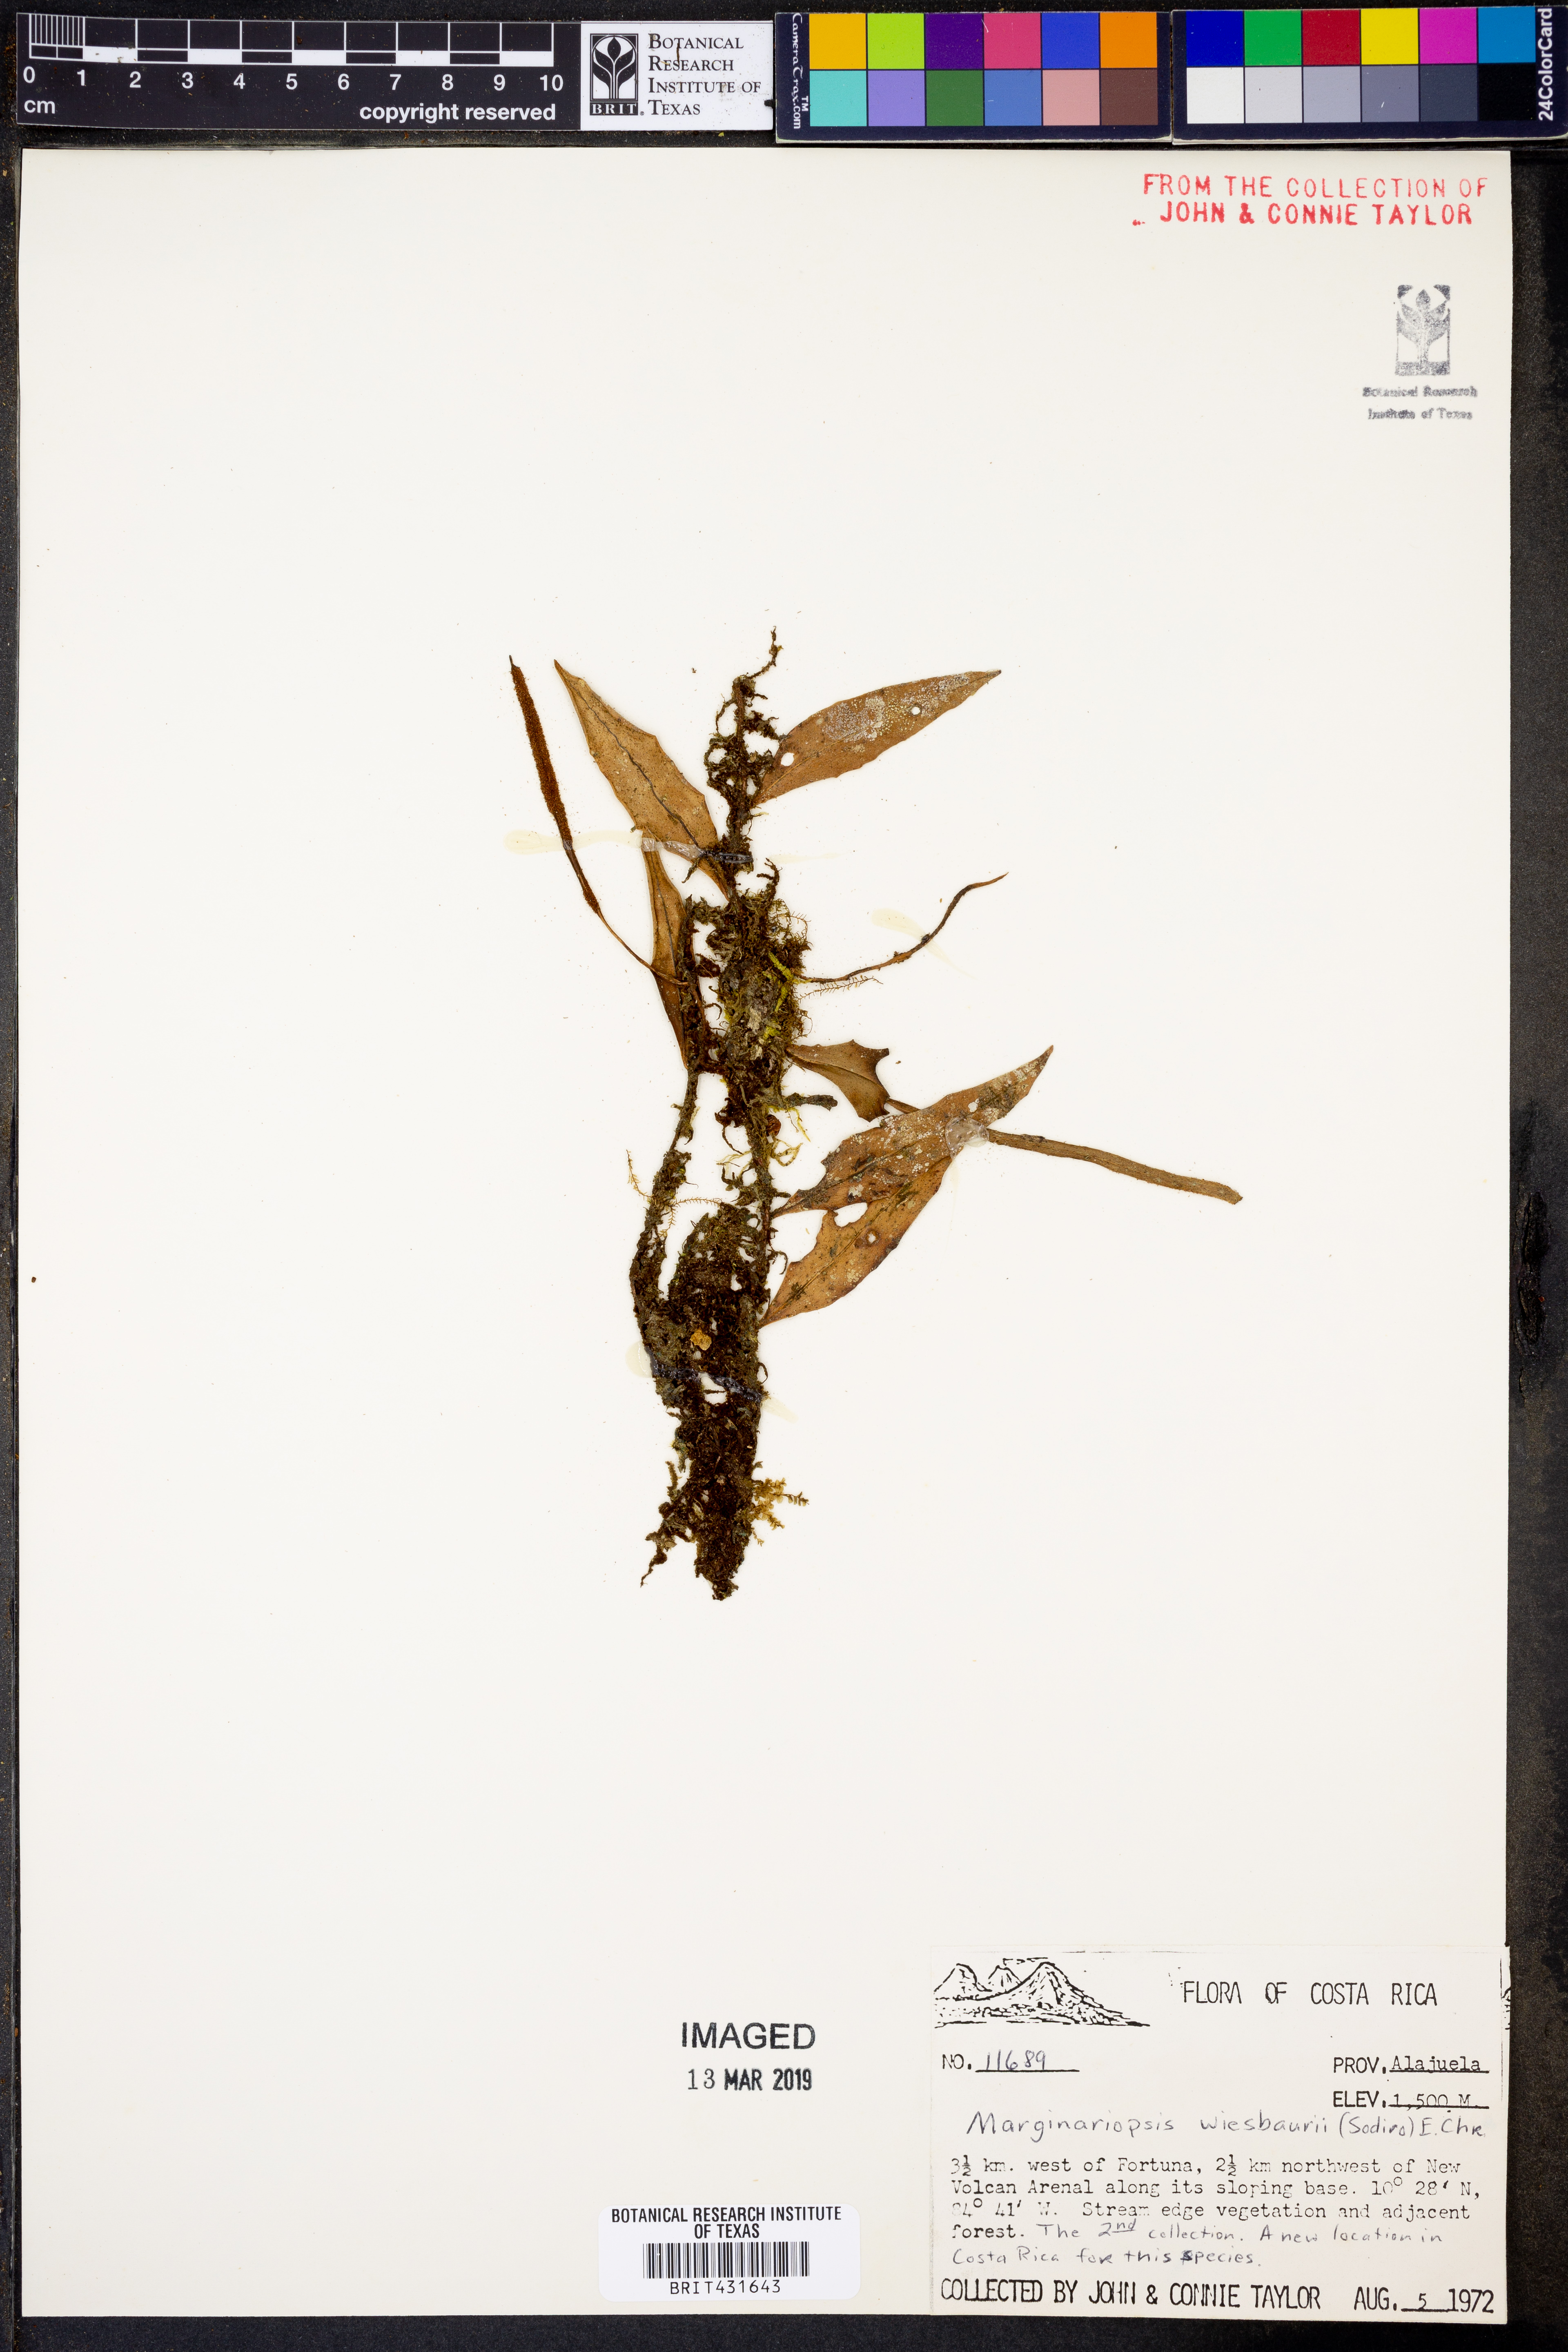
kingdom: Plantae
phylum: Tracheophyta
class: Polypodiopsida
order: Polypodiales
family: Polypodiaceae
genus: Pleopeltis
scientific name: Pleopeltis wiesbaurii
